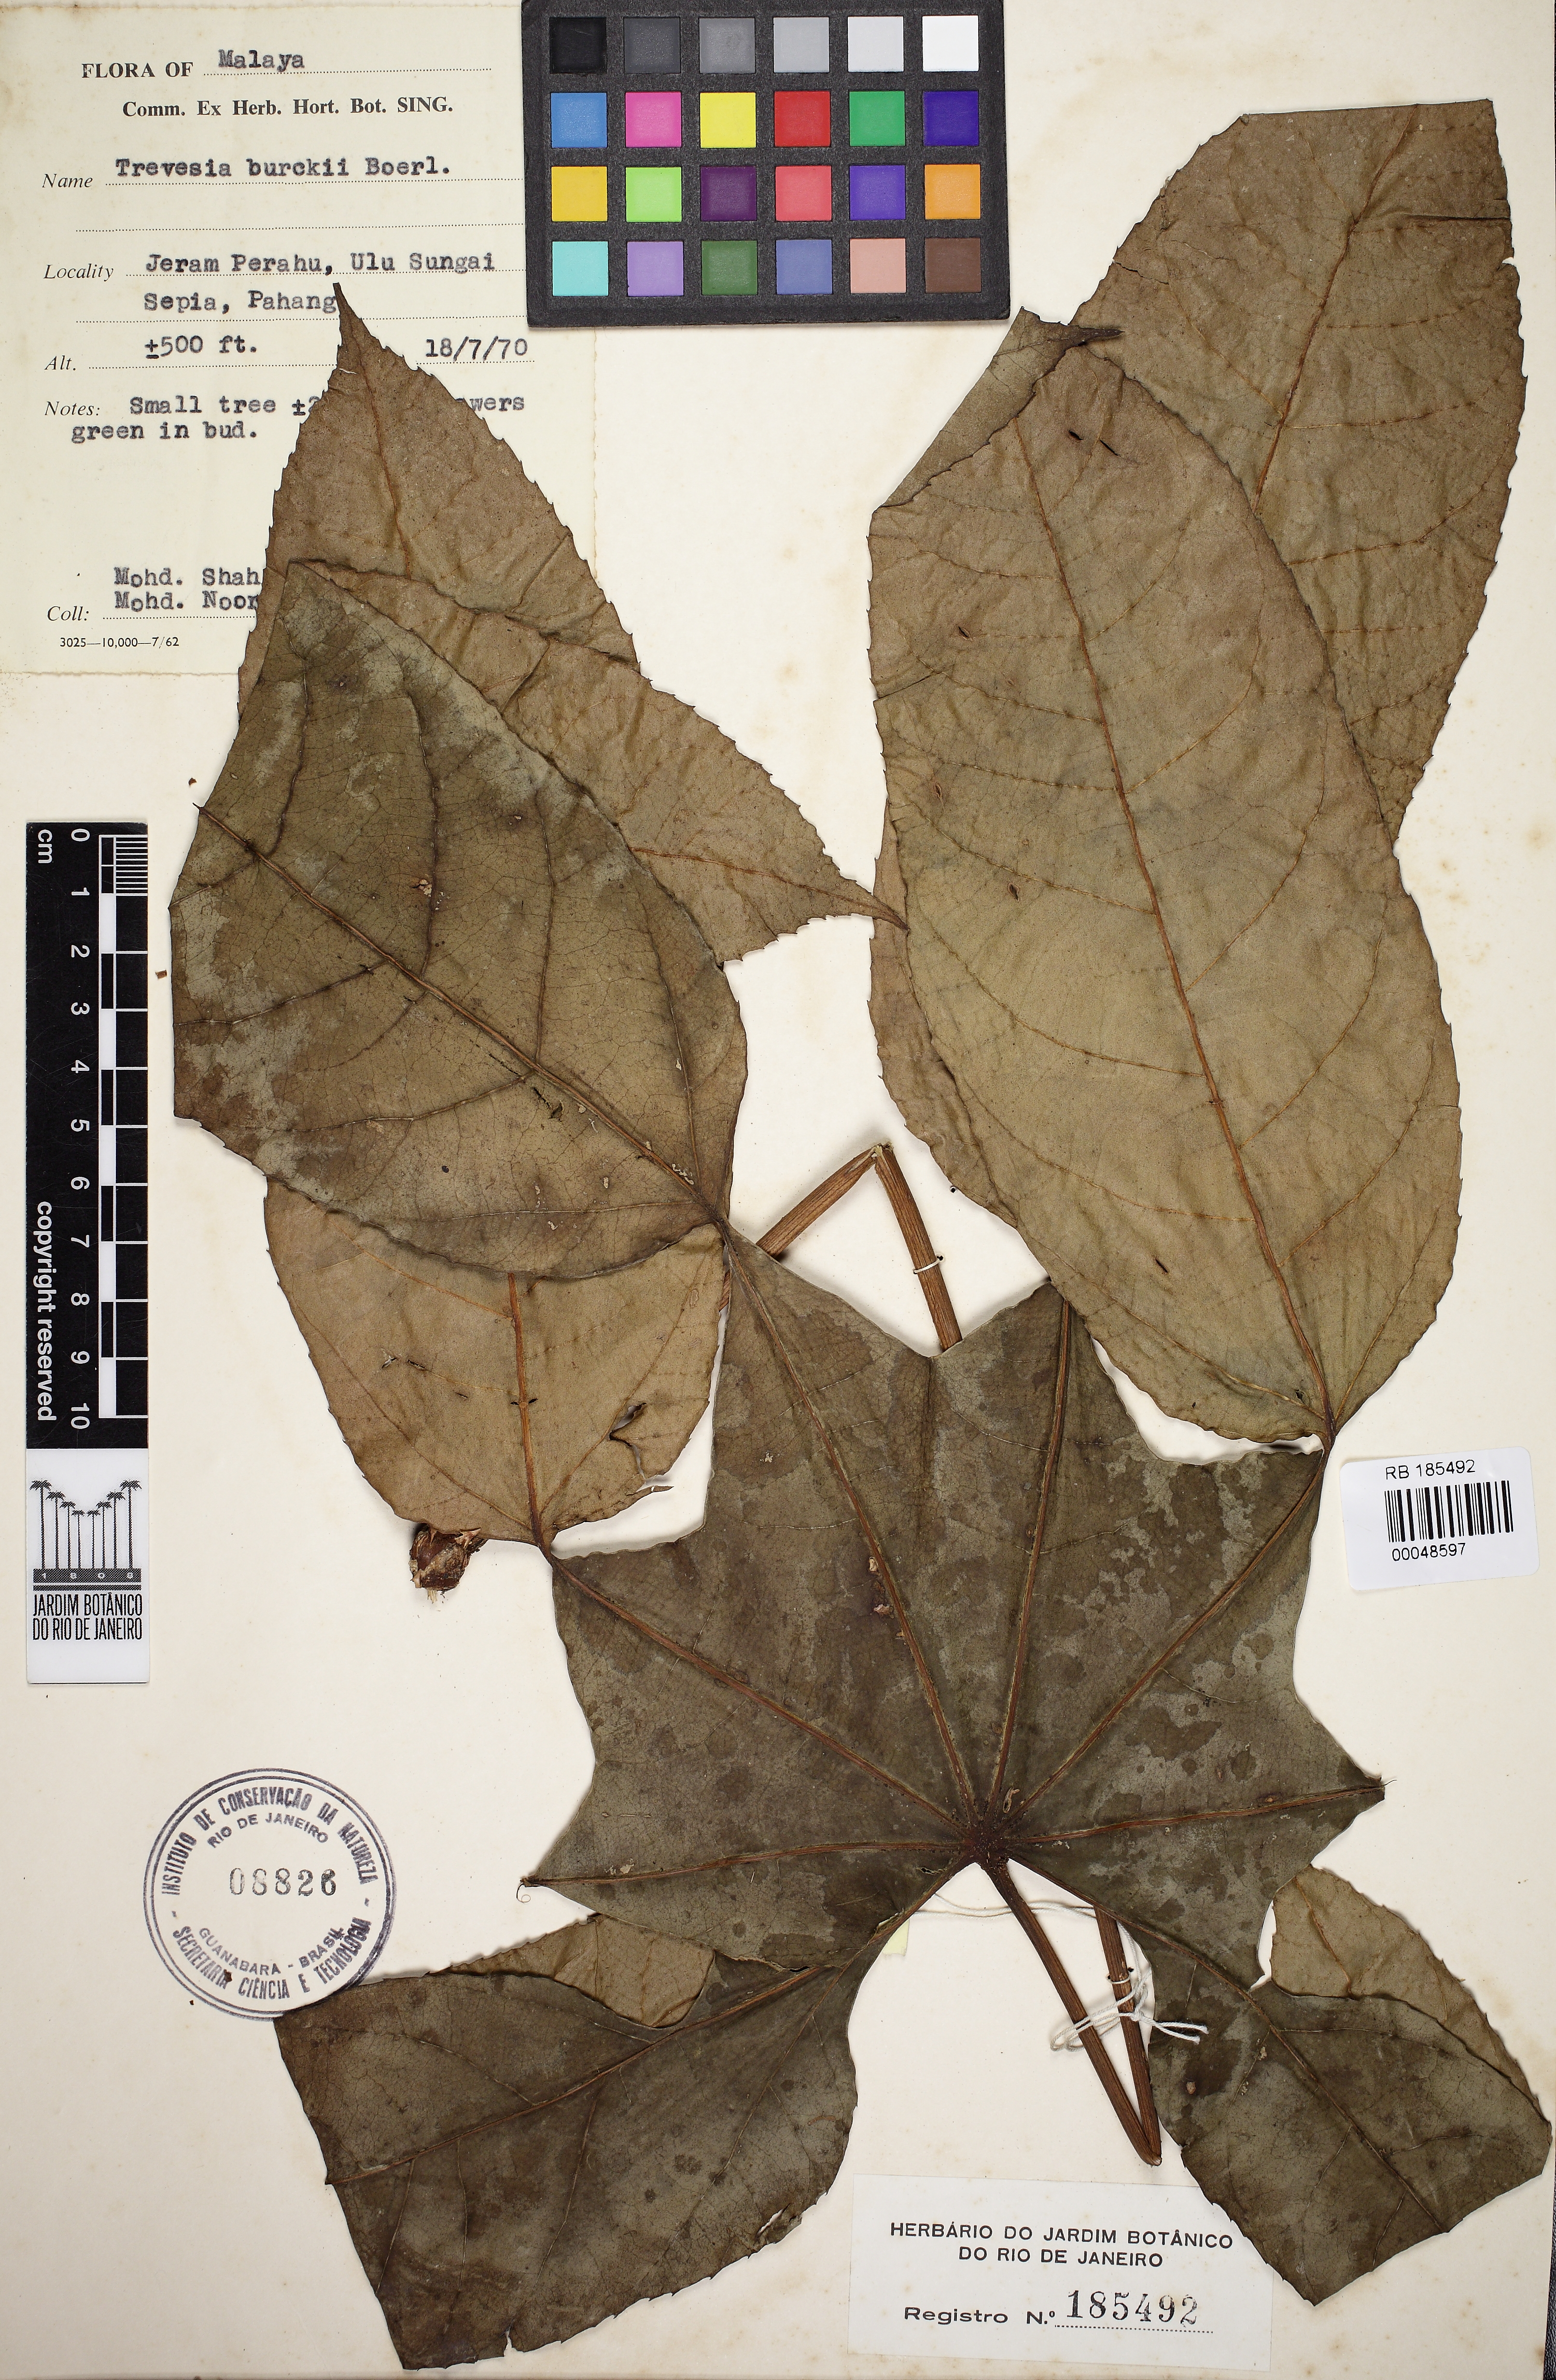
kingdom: Plantae
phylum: Tracheophyta
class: Magnoliopsida
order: Apiales
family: Araliaceae
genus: Trevesia
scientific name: Trevesia burckii
